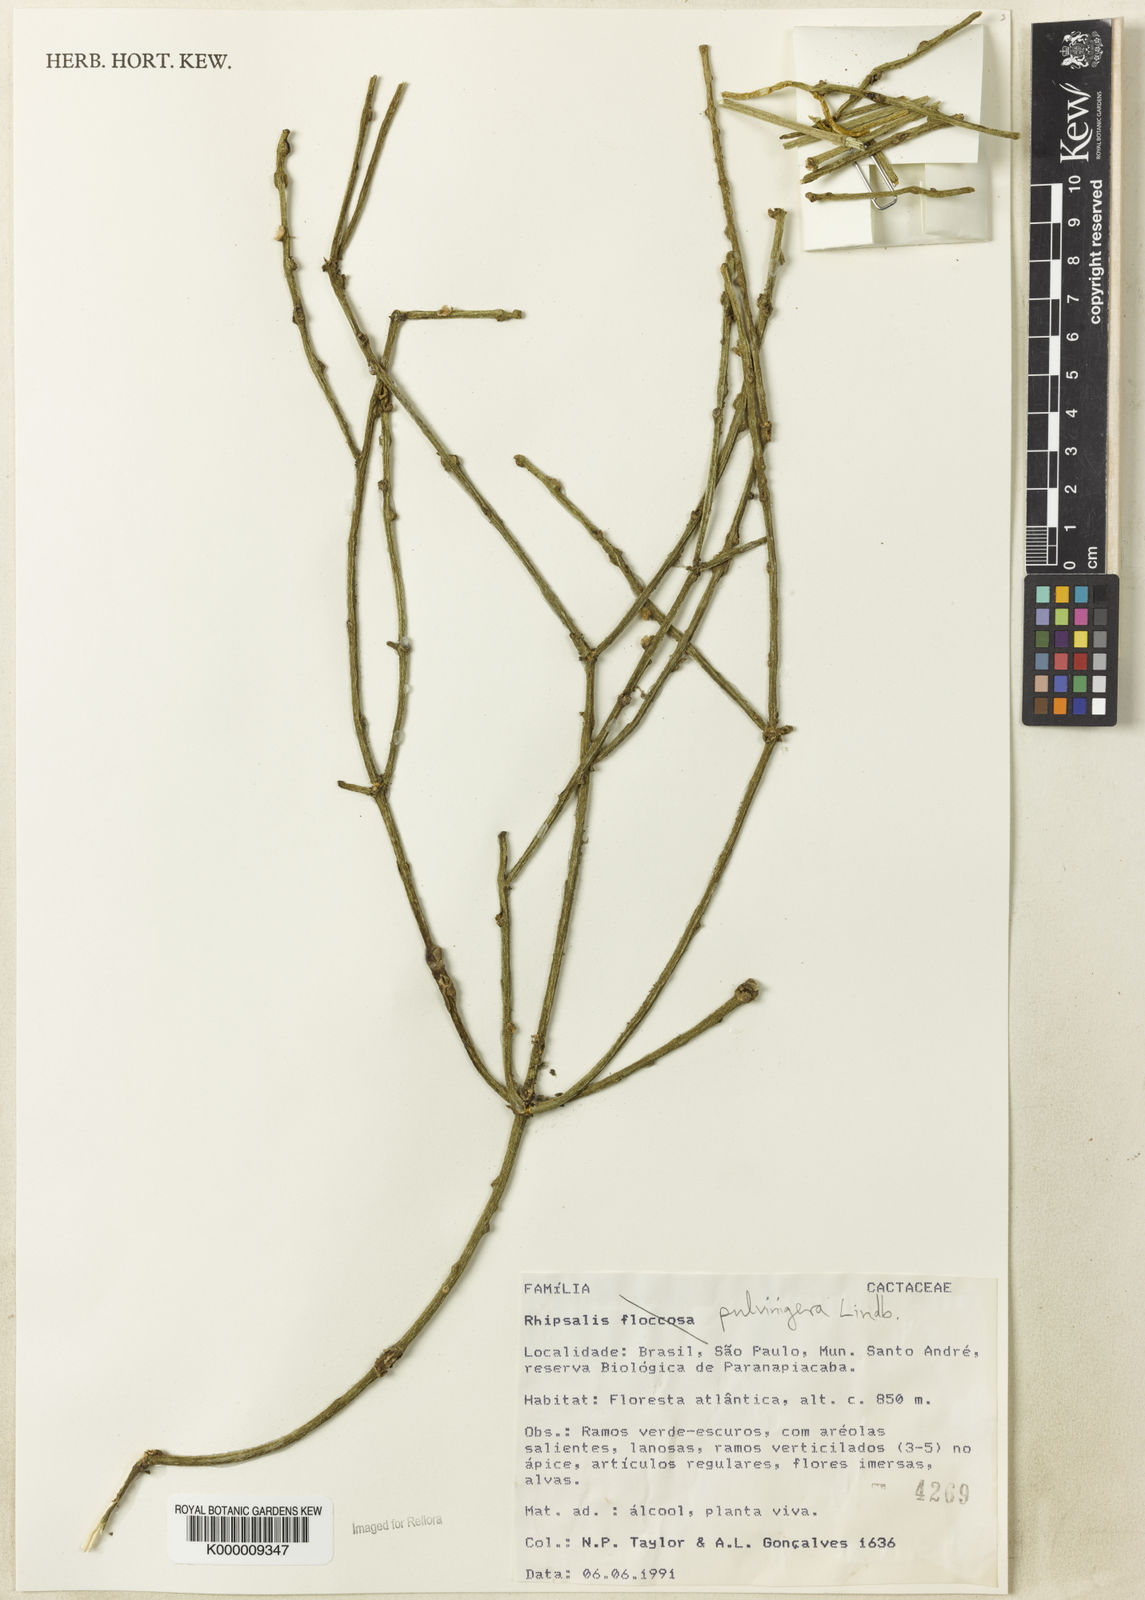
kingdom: Plantae
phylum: Tracheophyta
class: Magnoliopsida
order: Caryophyllales
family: Cactaceae
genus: Rhipsalis
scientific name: Rhipsalis floccosa
